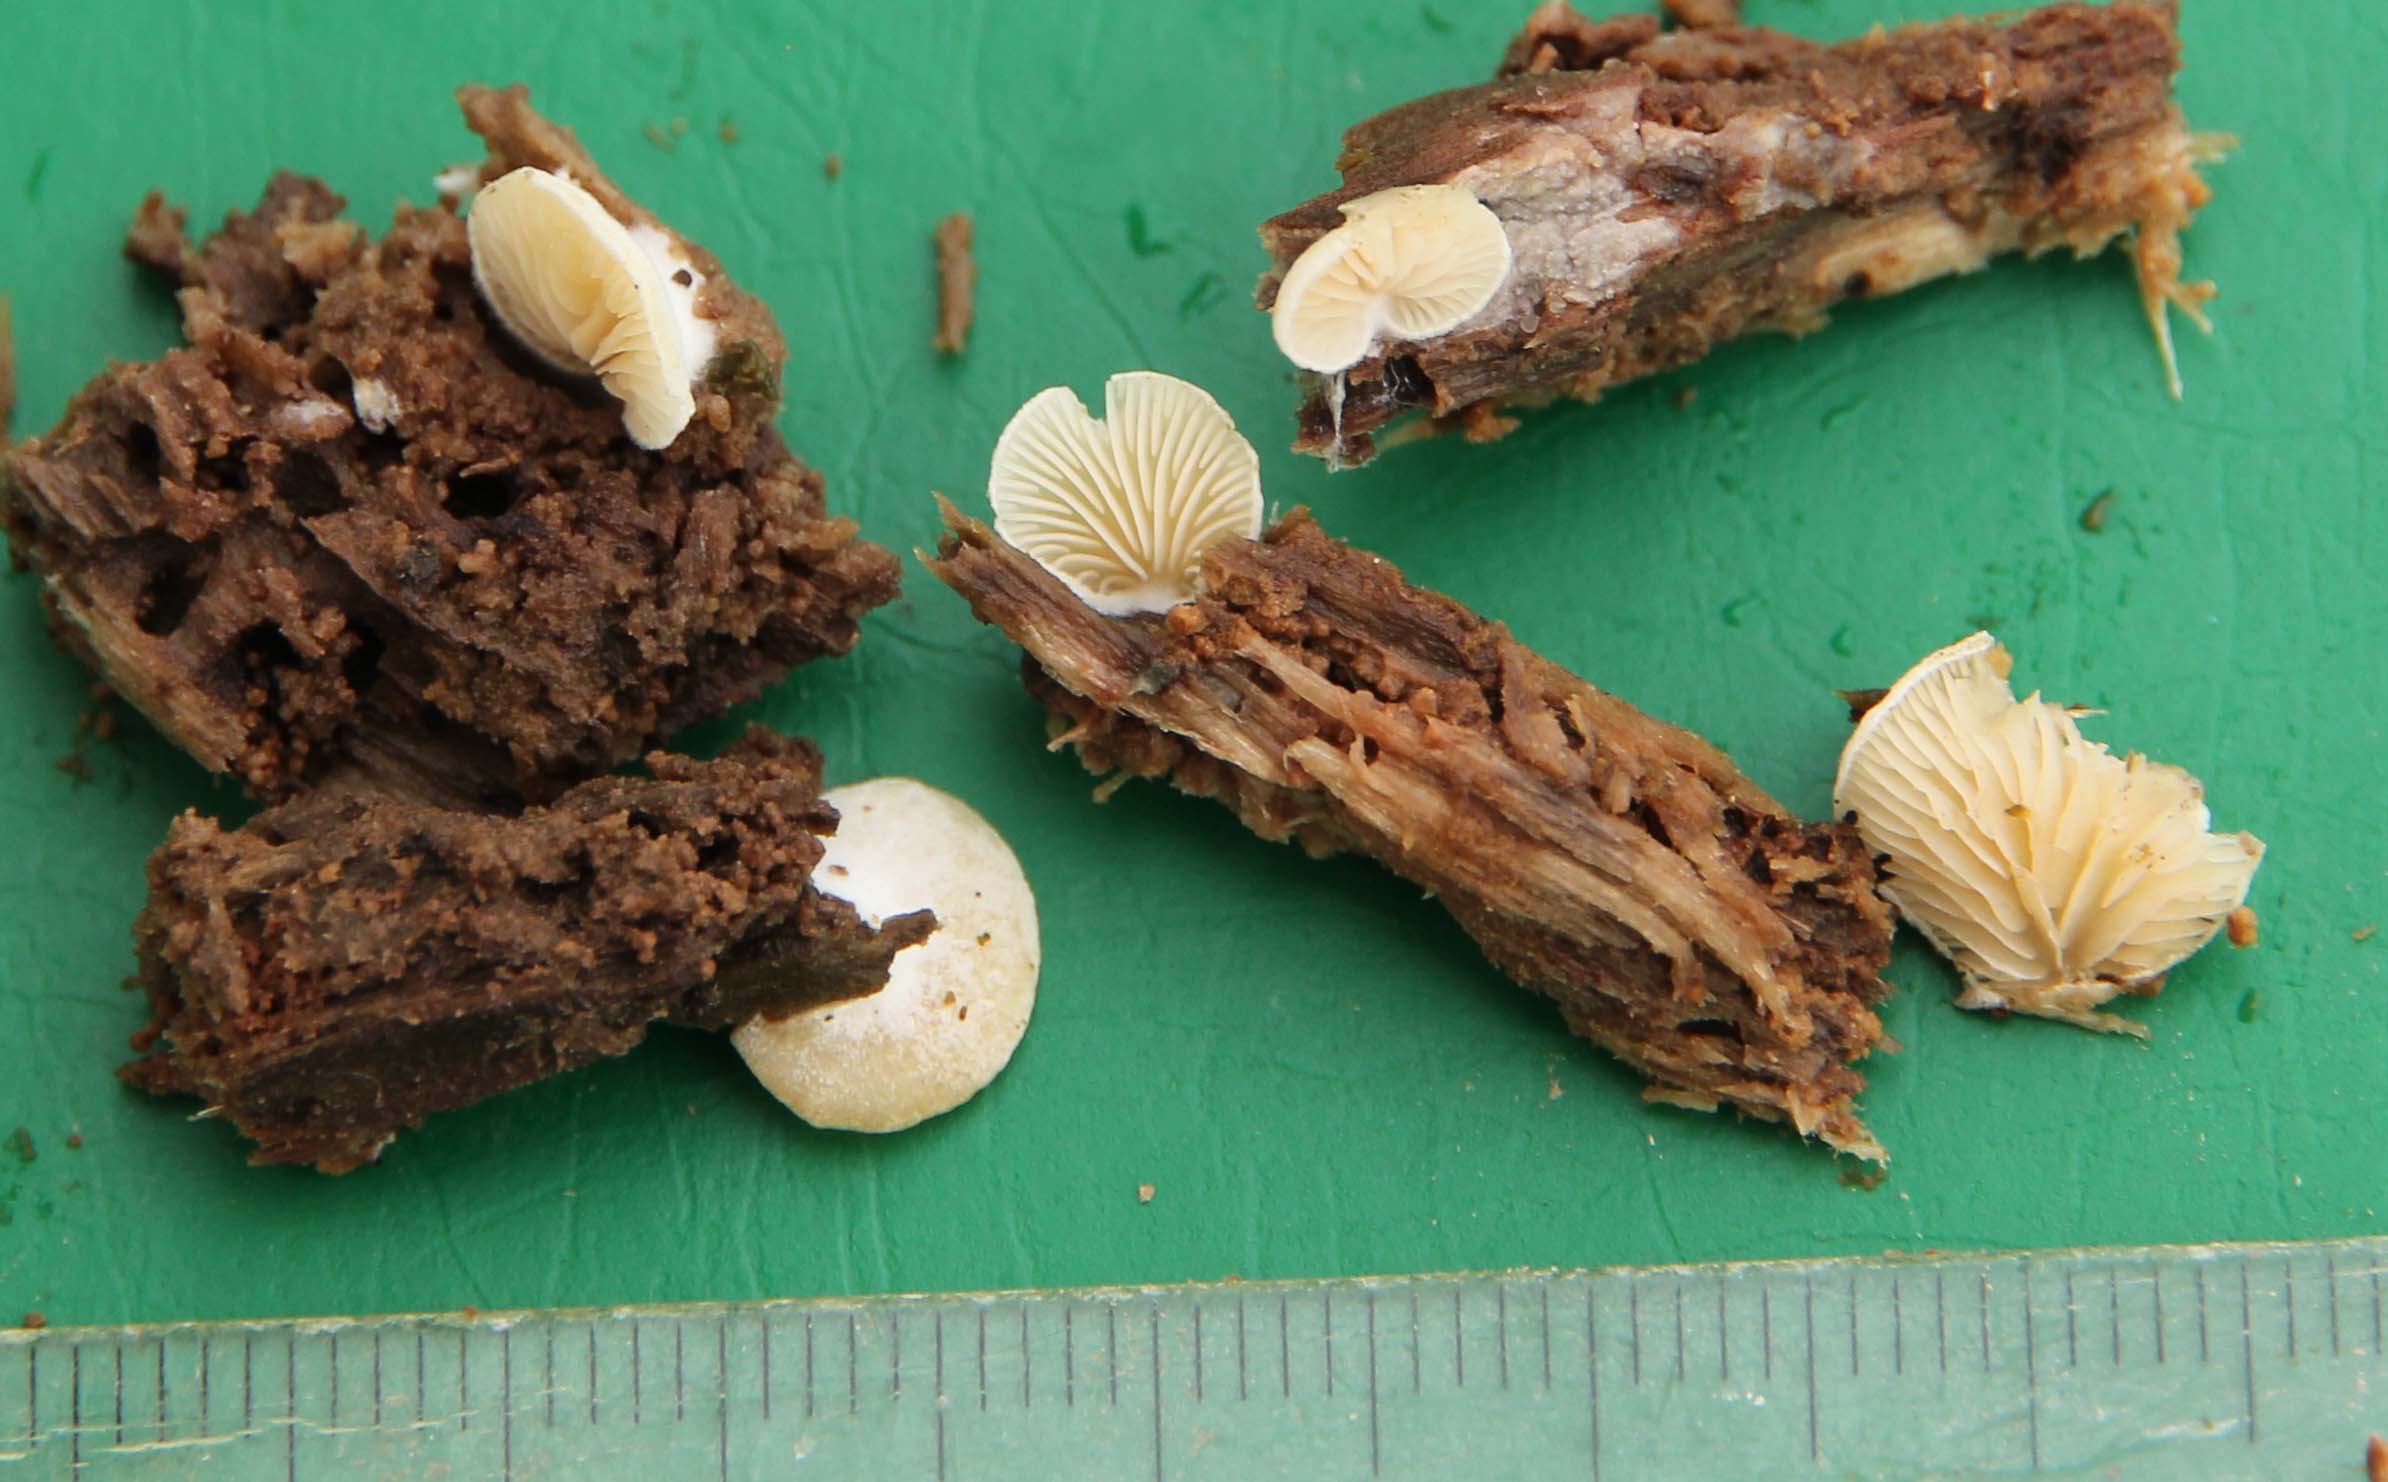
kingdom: Fungi
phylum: Basidiomycota
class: Agaricomycetes
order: Agaricales
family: Entolomataceae
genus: Clitopilus
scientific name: Clitopilus hobsonii
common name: Miller's oysterling
